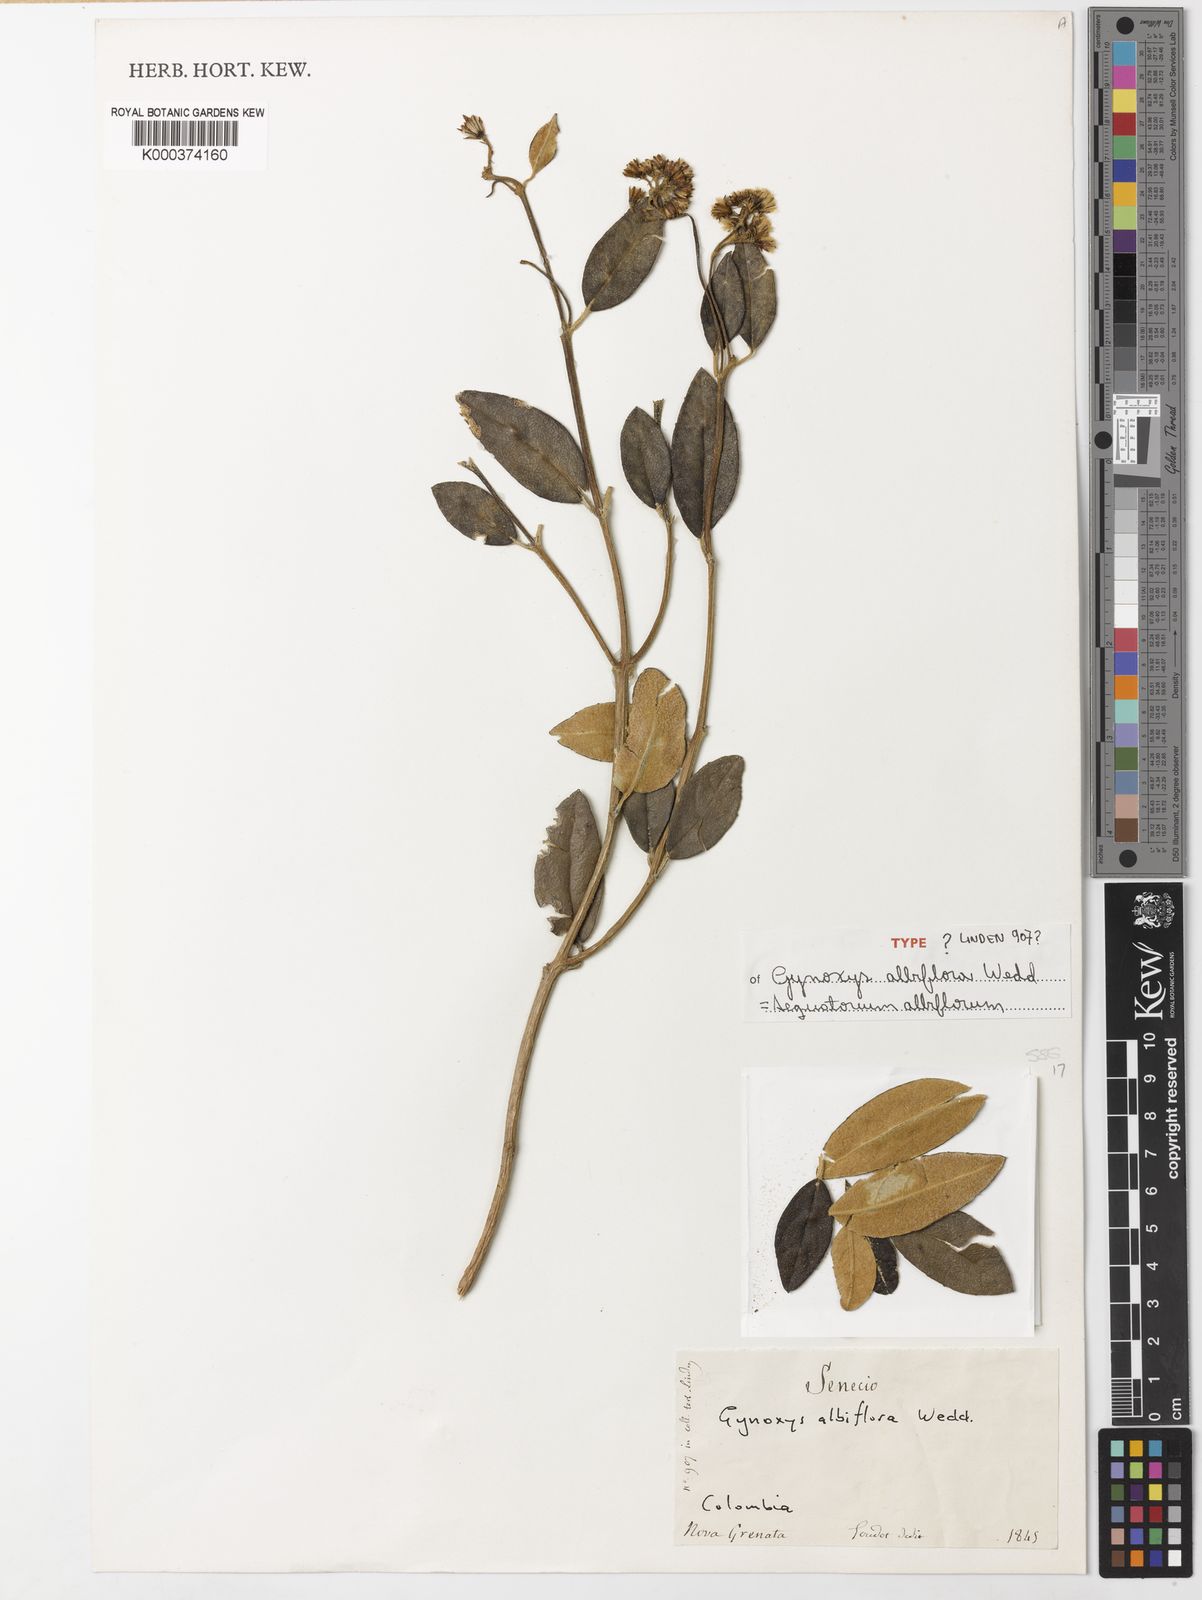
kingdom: Plantae
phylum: Tracheophyta
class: Magnoliopsida
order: Asterales
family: Asteraceae
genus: Aequatorium
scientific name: Aequatorium albiflorum
